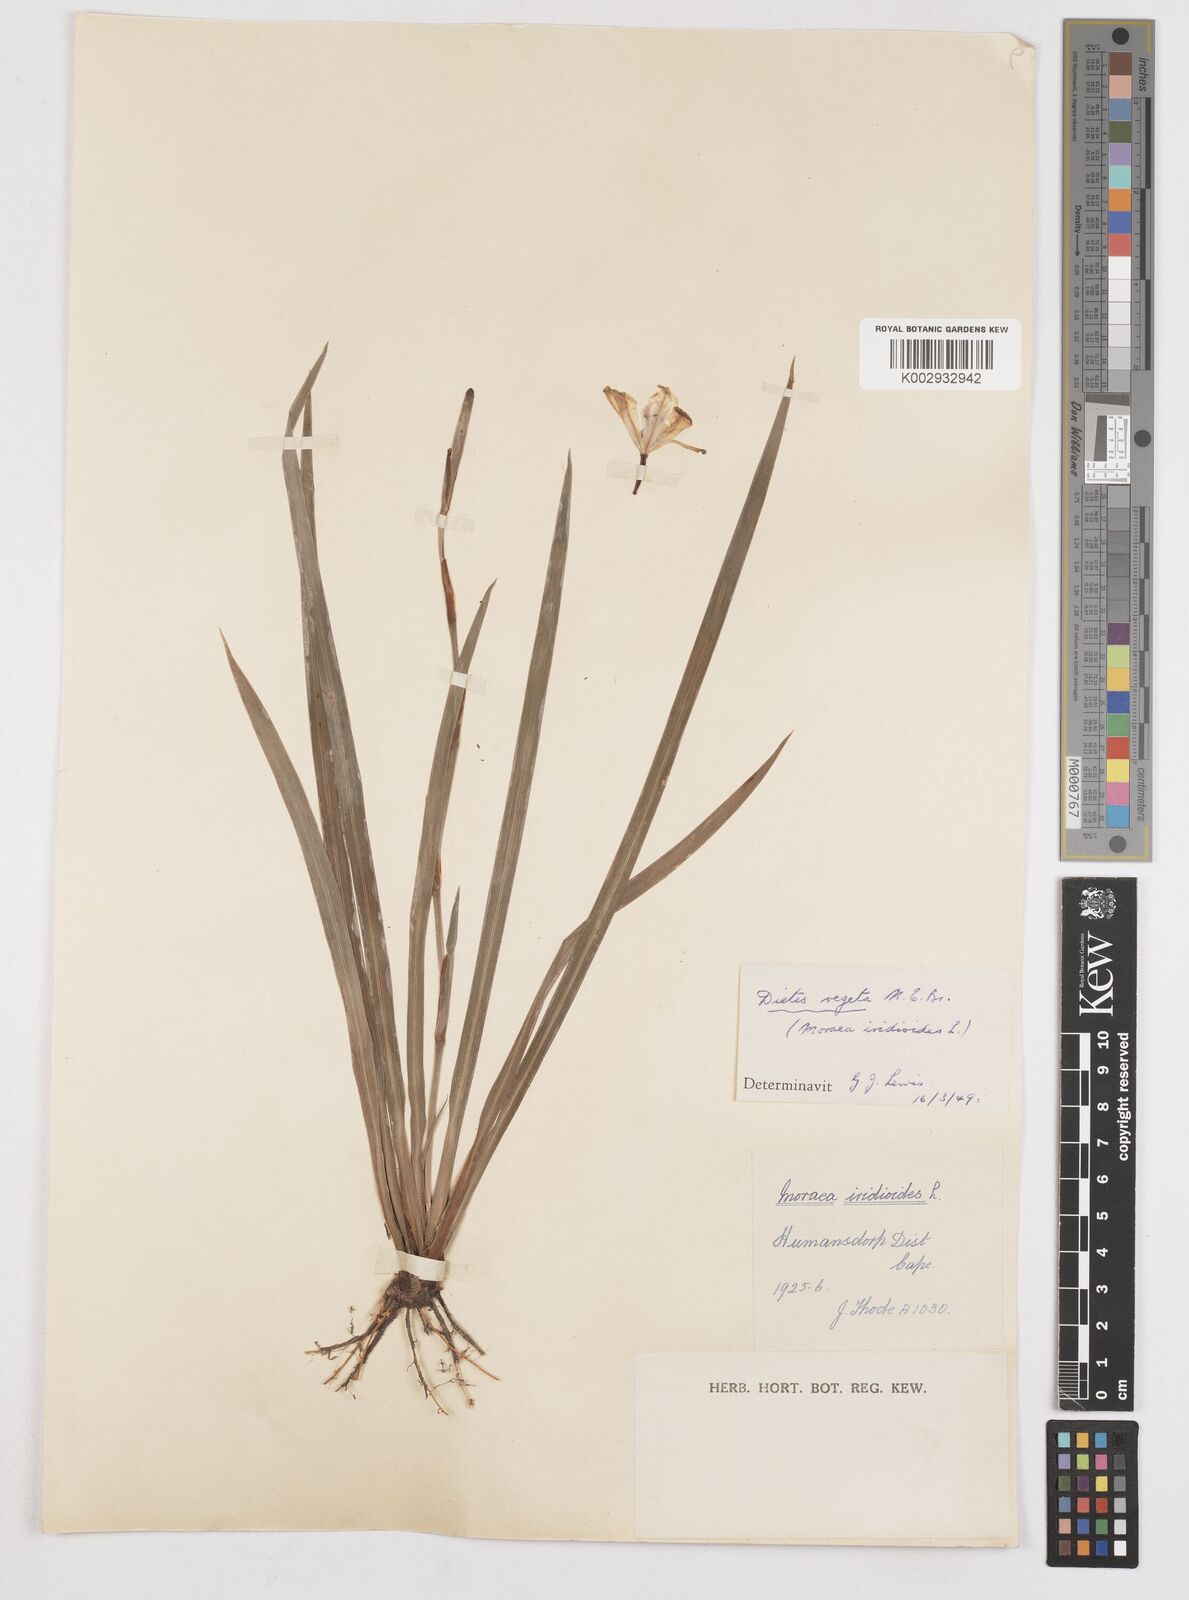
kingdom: Plantae
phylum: Tracheophyta
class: Liliopsida
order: Asparagales
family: Iridaceae
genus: Dietes
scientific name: Dietes iridioides
